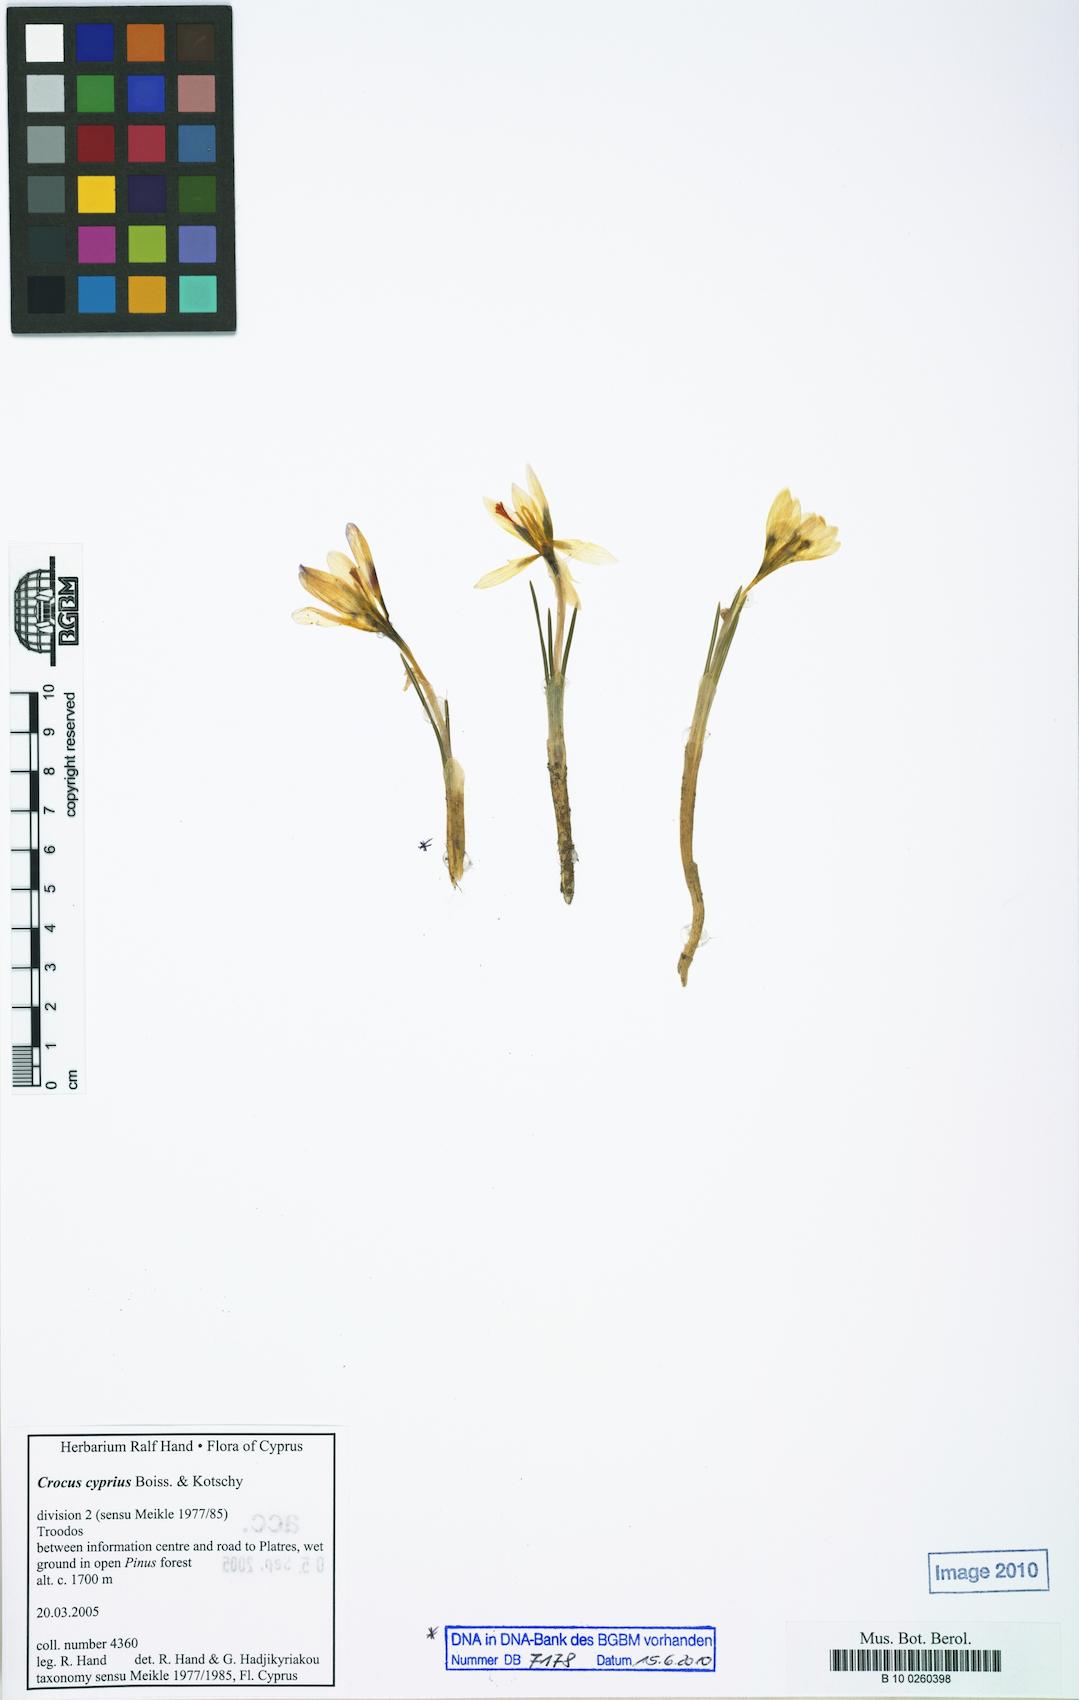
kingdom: Plantae
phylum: Tracheophyta
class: Liliopsida
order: Asparagales
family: Iridaceae
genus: Crocus
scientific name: Crocus cyprius
